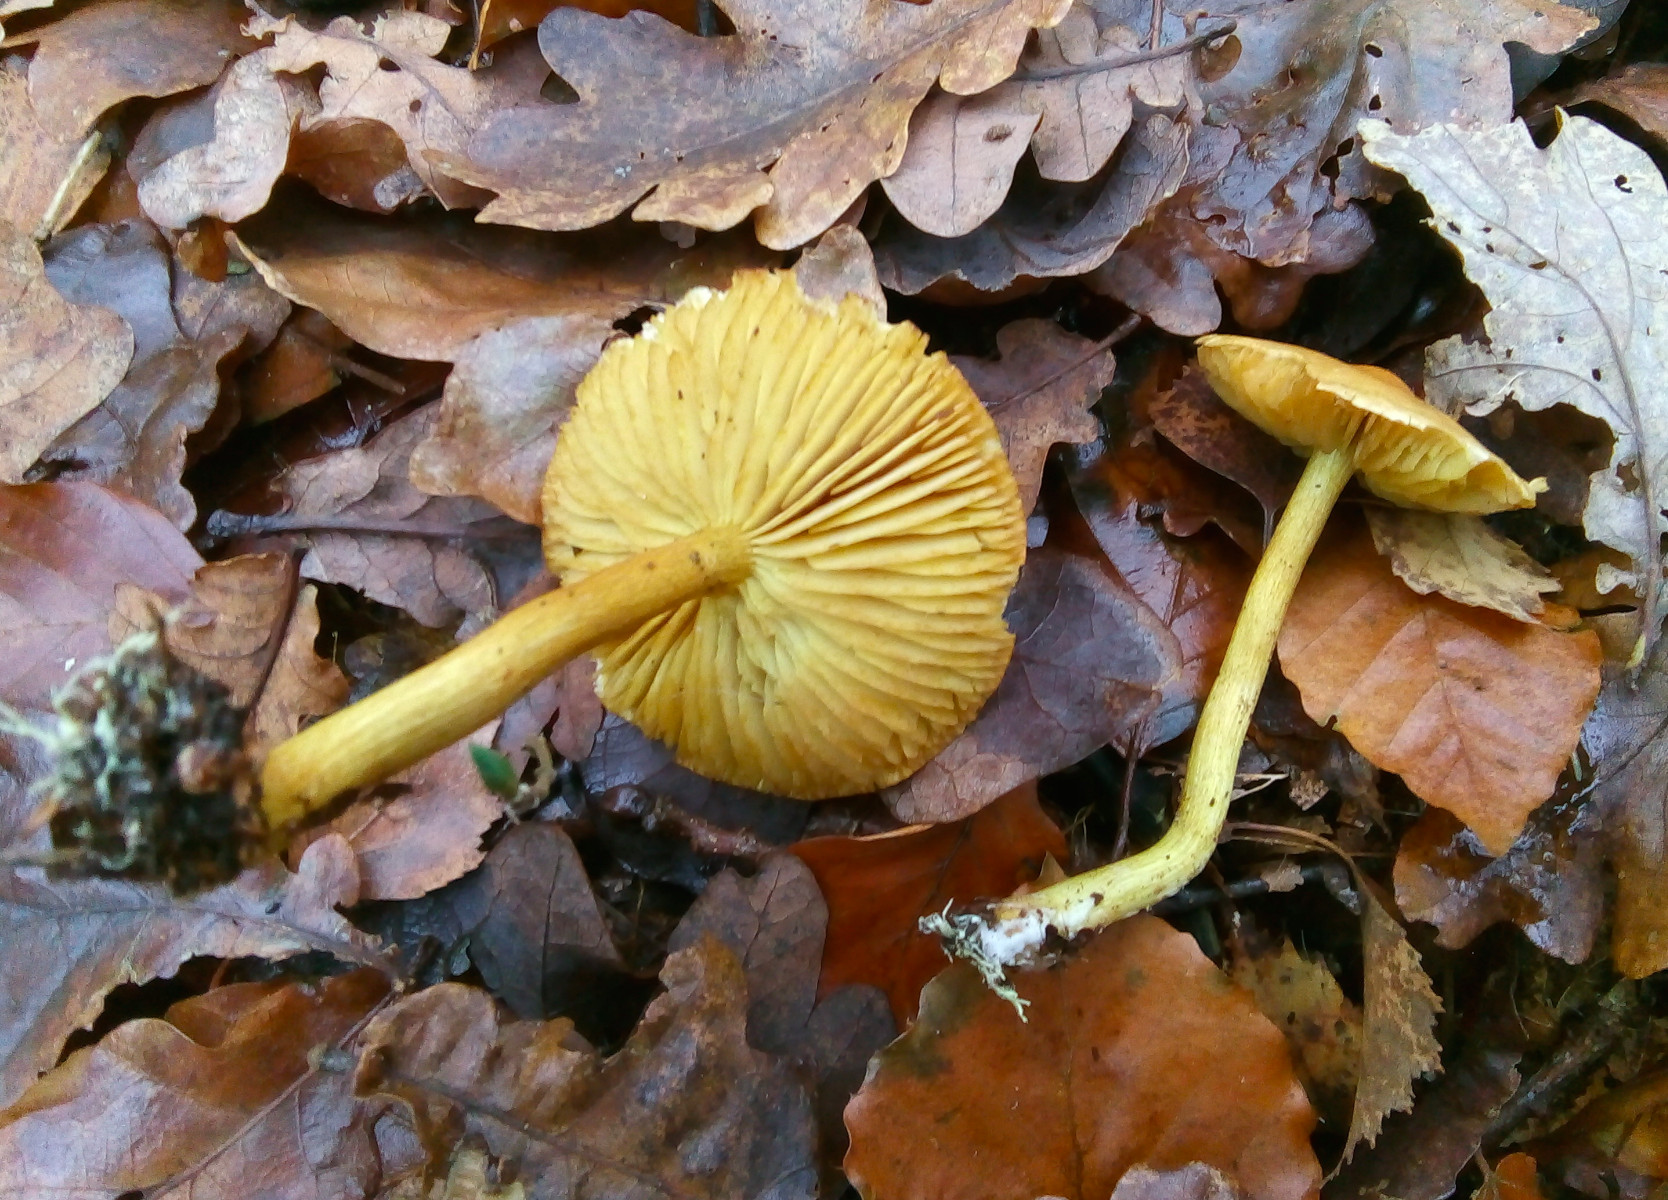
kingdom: Fungi
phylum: Basidiomycota
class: Agaricomycetes
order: Agaricales
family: Tricholomataceae
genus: Tricholoma
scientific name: Tricholoma sulphureum
